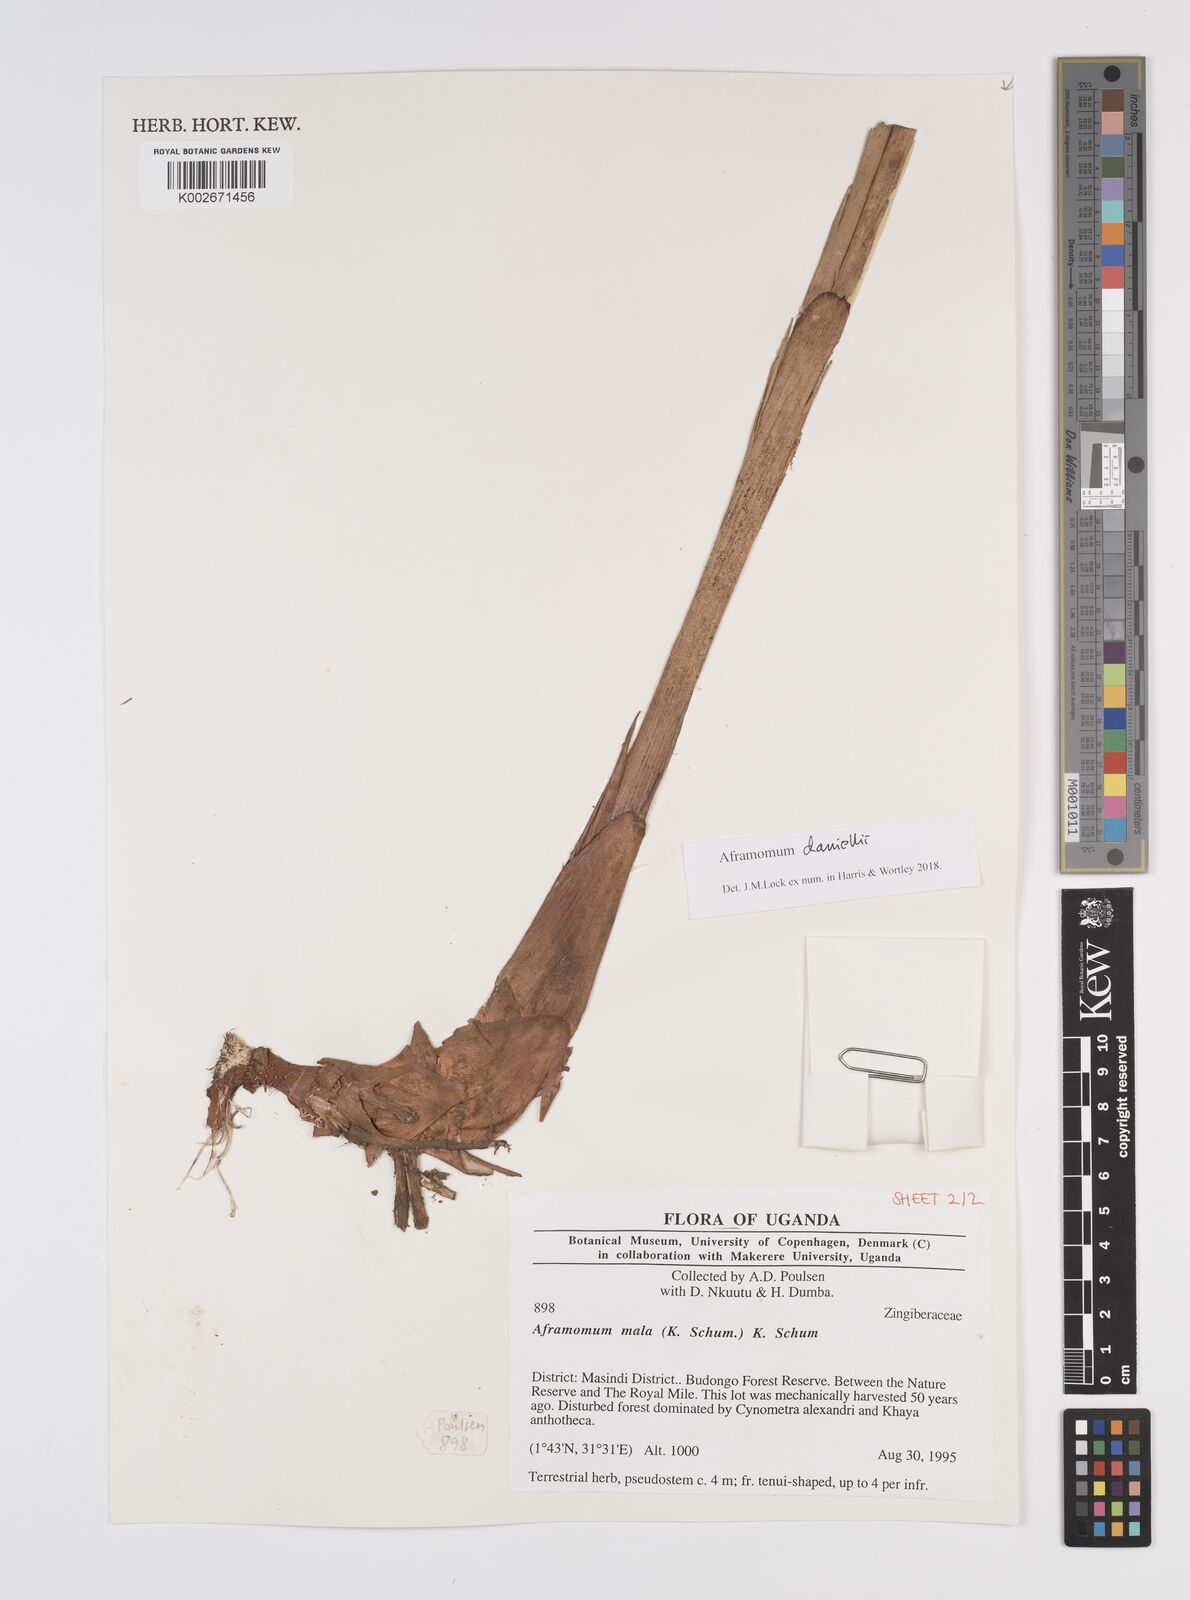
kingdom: Plantae
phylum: Tracheophyta
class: Liliopsida
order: Zingiberales
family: Zingiberaceae
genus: Aframomum
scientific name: Aframomum daniellii
